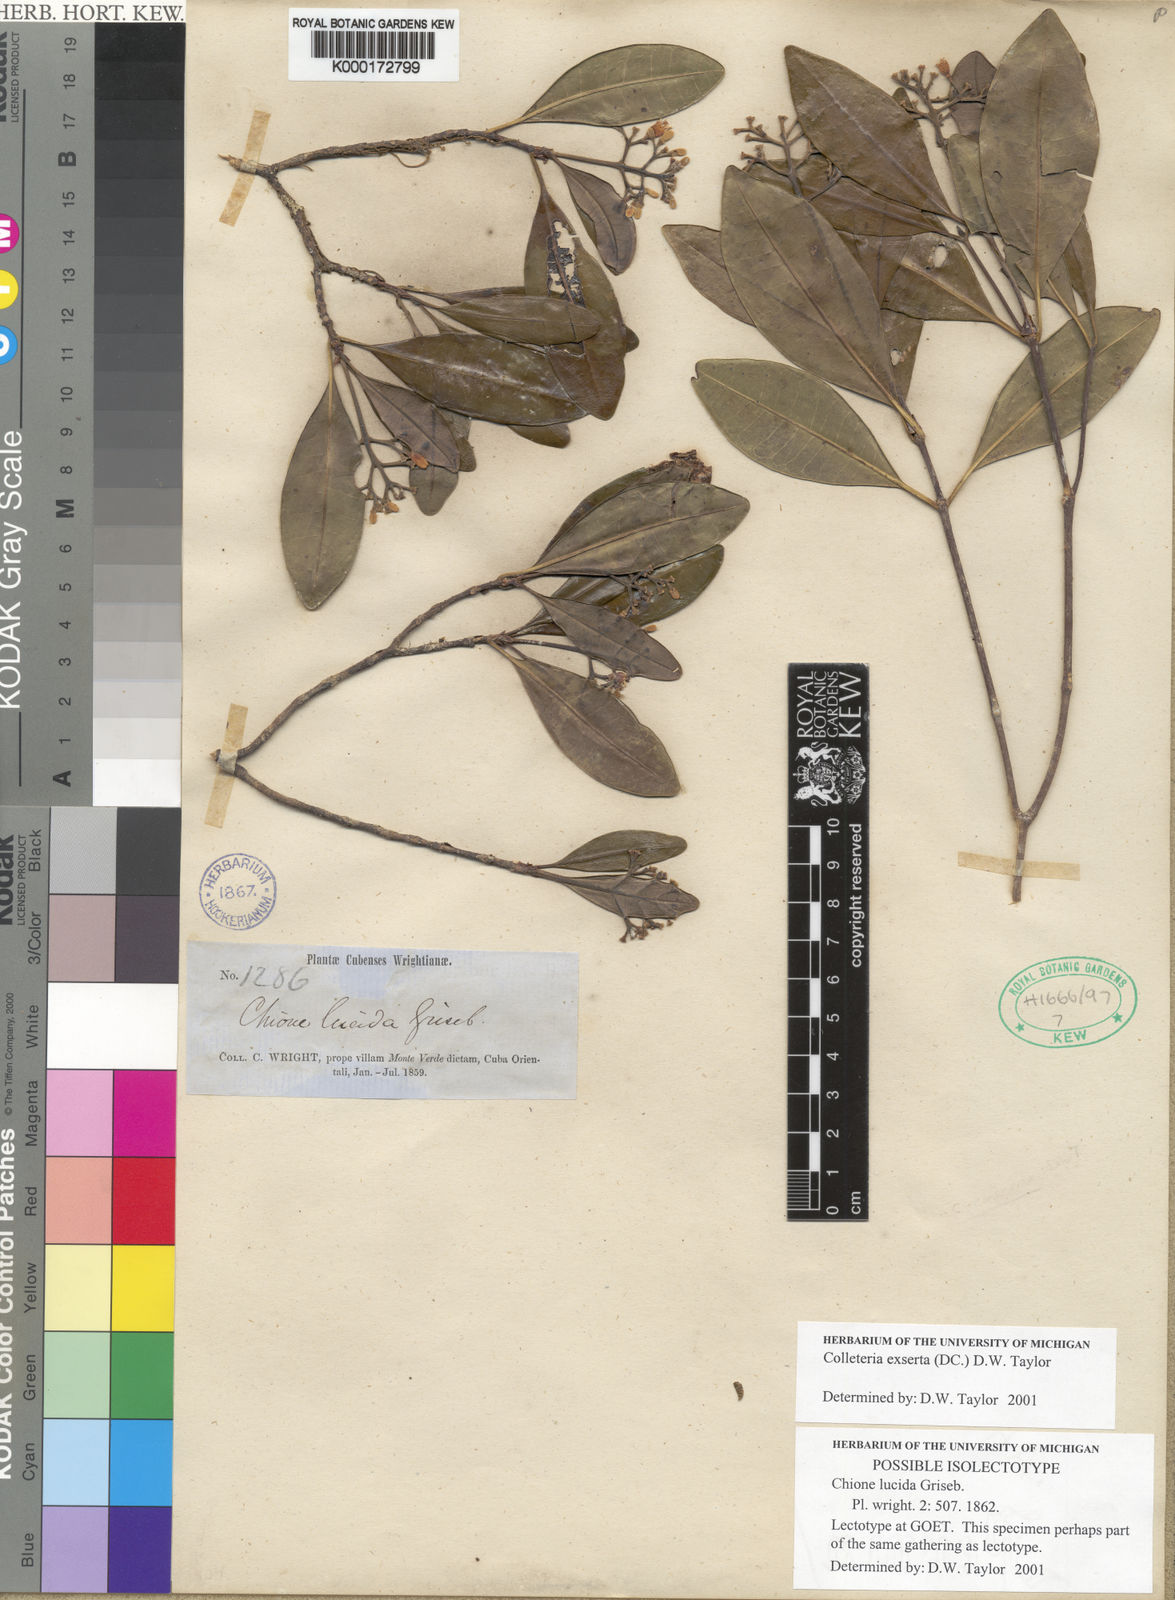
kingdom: Plantae
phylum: Tracheophyta
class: Magnoliopsida
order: Gentianales
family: Rubiaceae
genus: Wandersong
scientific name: Wandersong exserta
